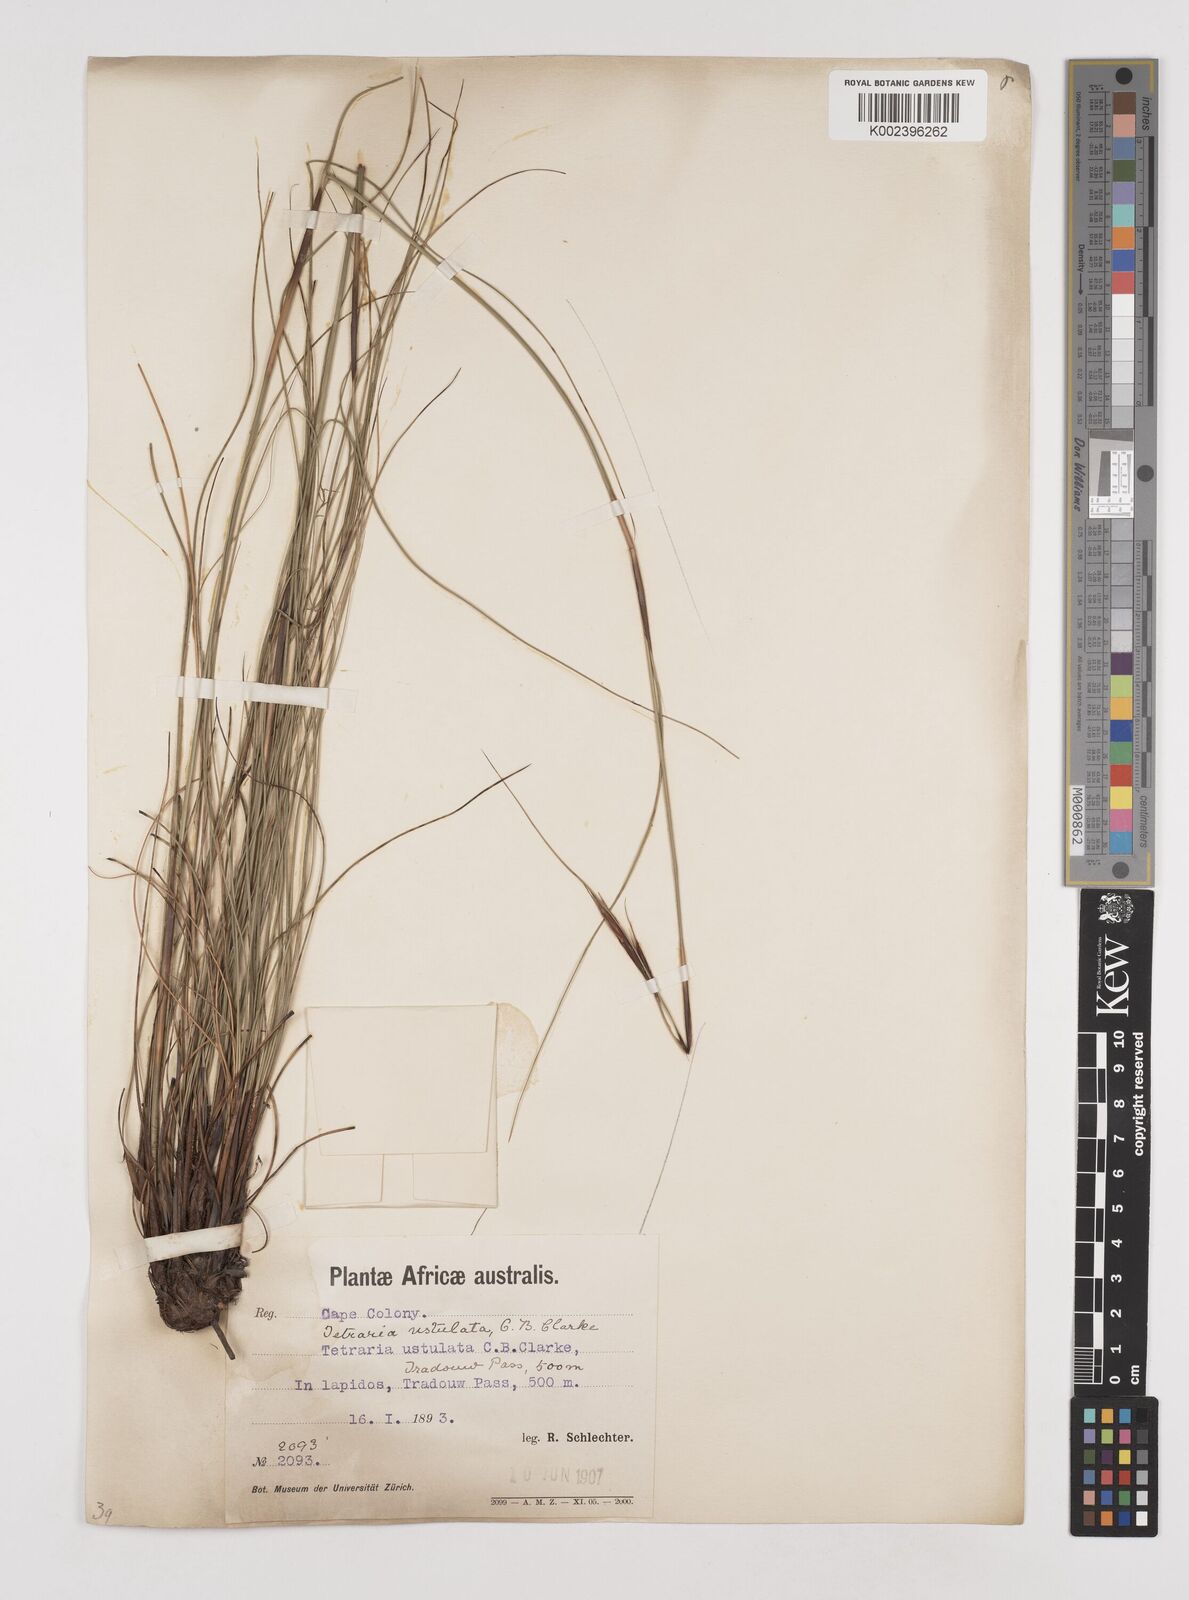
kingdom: Plantae
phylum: Tracheophyta
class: Liliopsida
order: Poales
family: Cyperaceae
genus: Tetraria
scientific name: Tetraria ustulata
